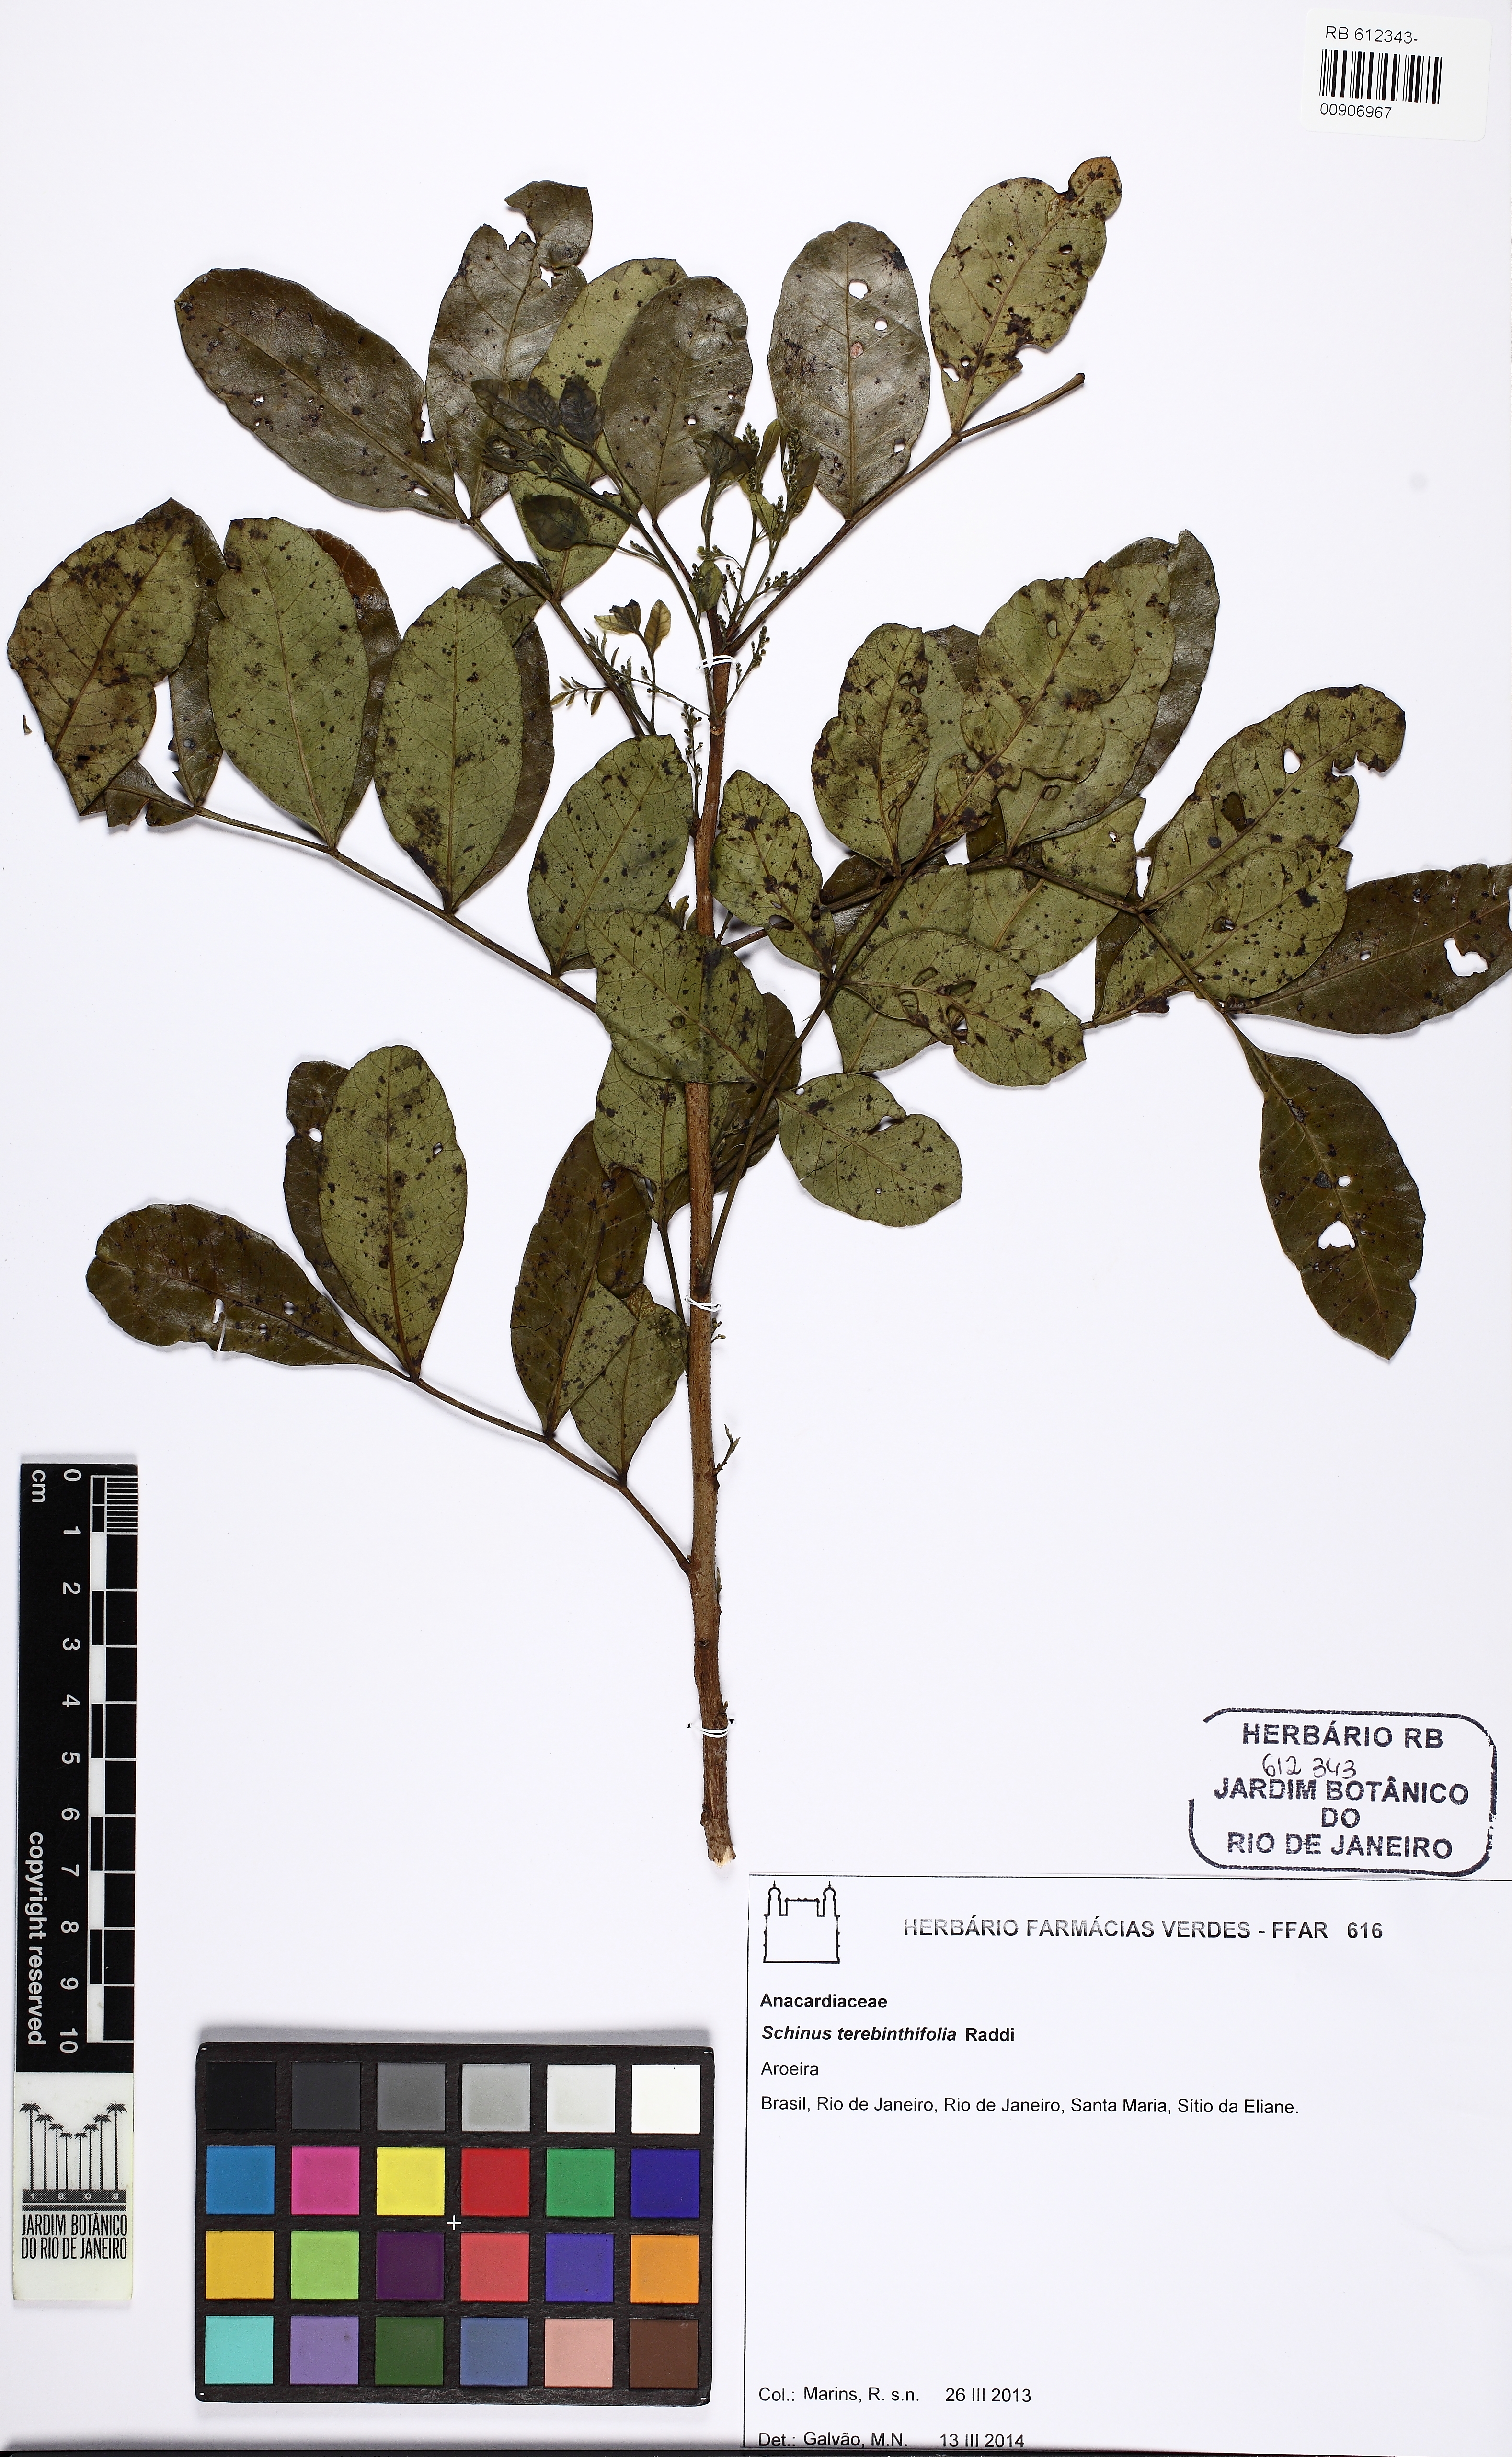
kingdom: Plantae
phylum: Tracheophyta
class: Magnoliopsida
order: Sapindales
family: Anacardiaceae
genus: Schinus
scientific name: Schinus terebinthifolia
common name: Brazilian peppertree
